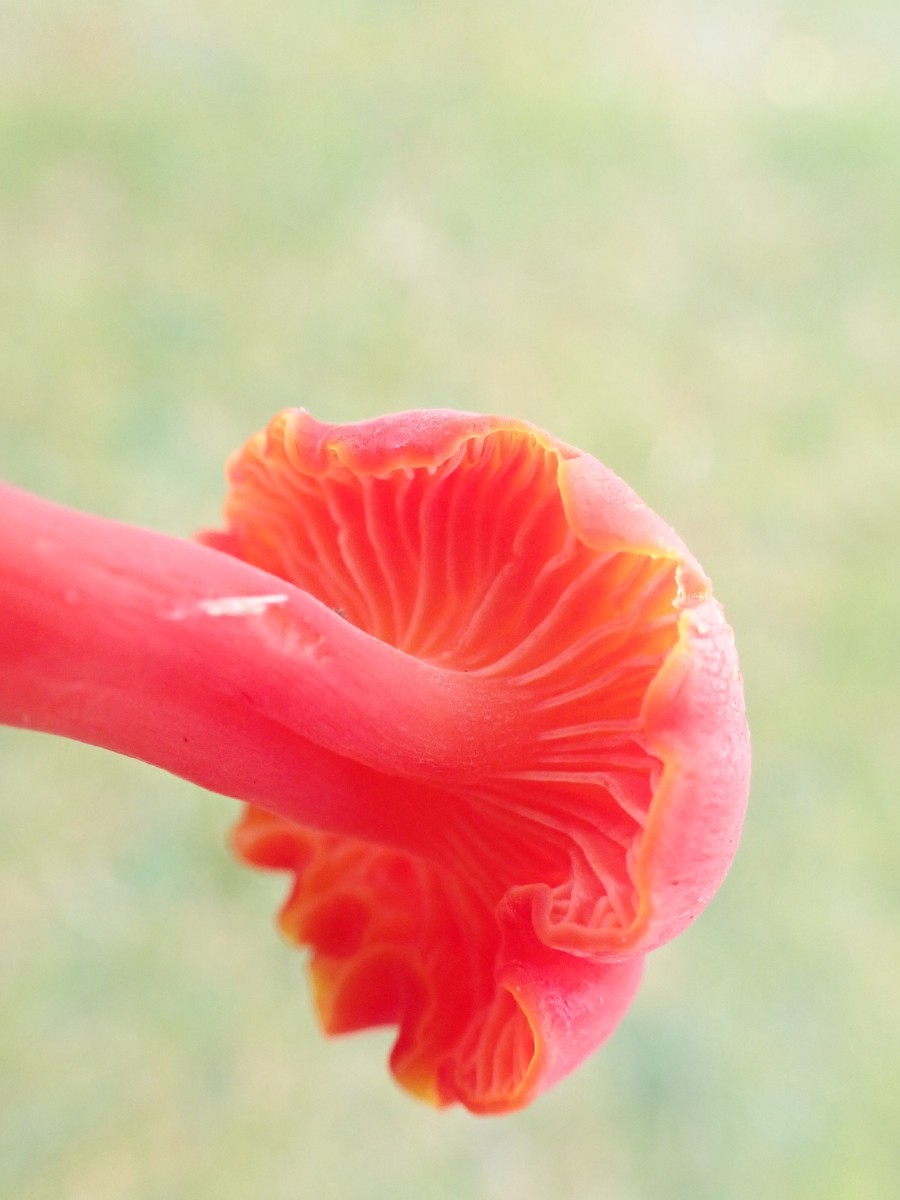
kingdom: Fungi
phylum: Basidiomycota
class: Agaricomycetes
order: Agaricales
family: Hygrophoraceae
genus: Hygrocybe
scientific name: Hygrocybe phaeococcinea
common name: sortdugget vokshat
